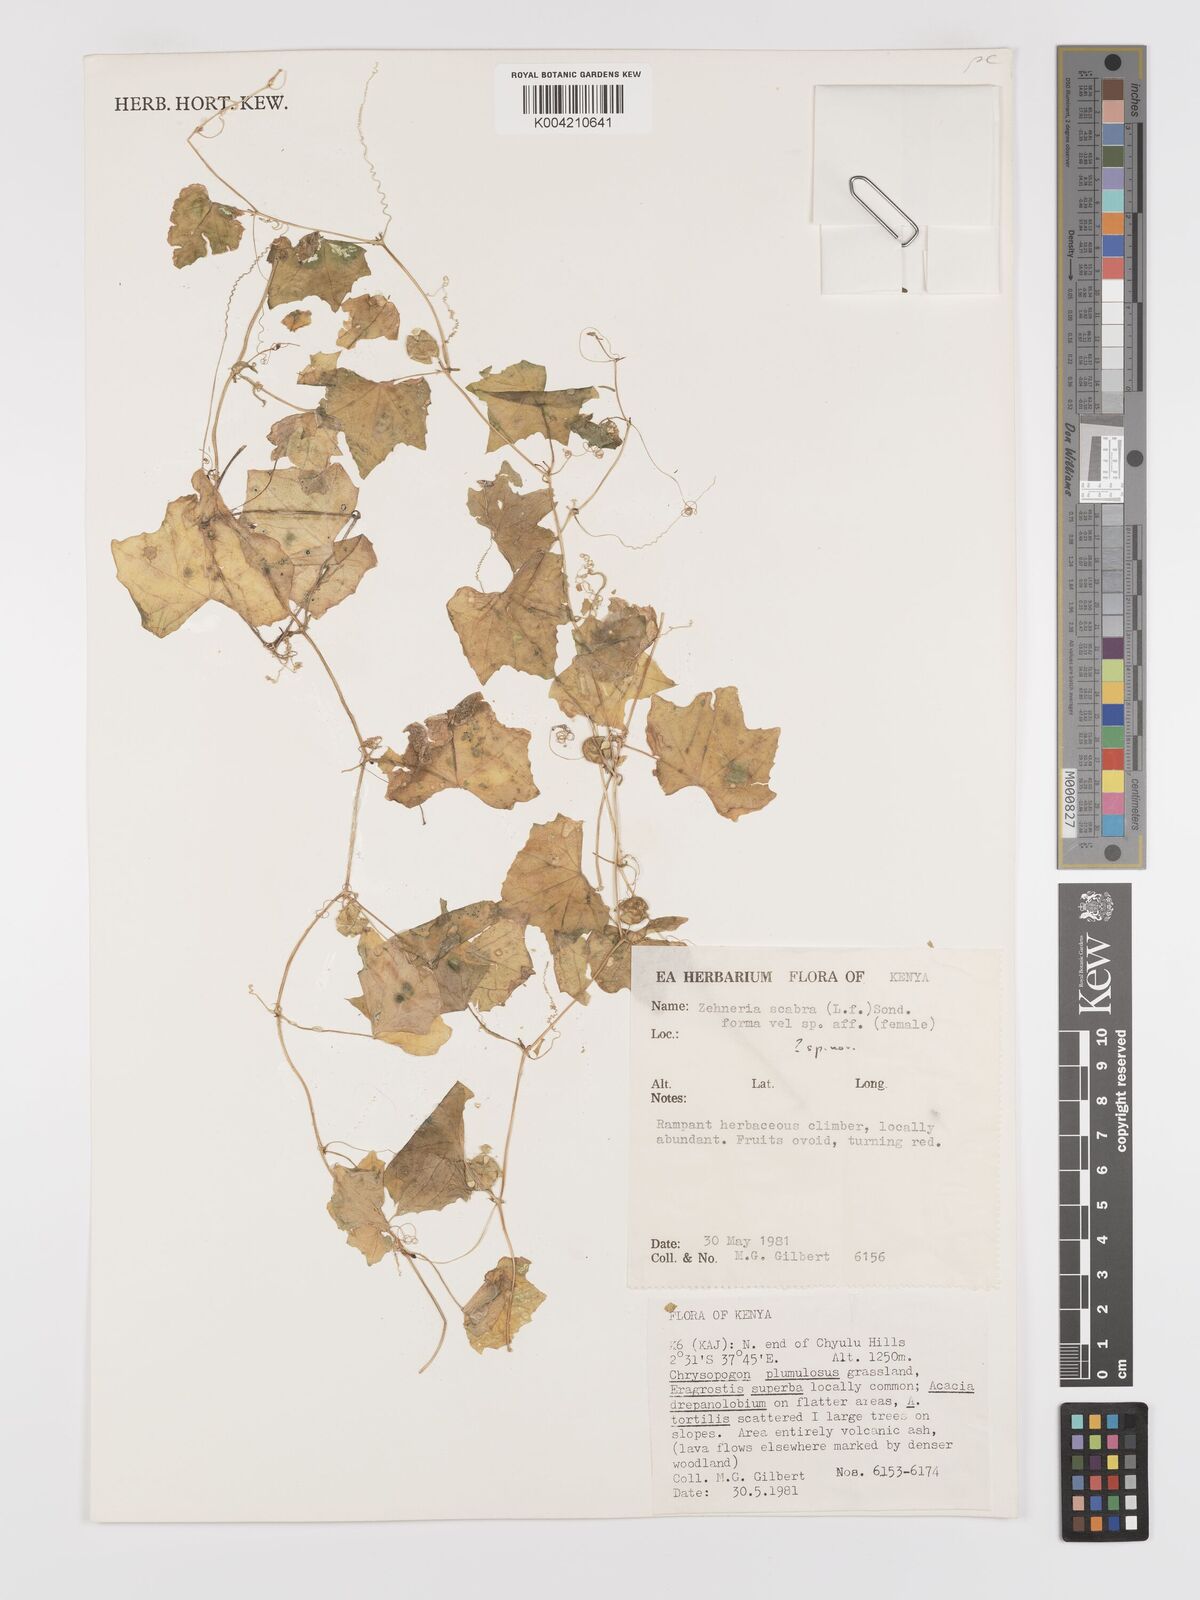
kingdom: Plantae
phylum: Tracheophyta
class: Magnoliopsida
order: Cucurbitales
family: Cucurbitaceae
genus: Zehneria
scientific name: Zehneria
